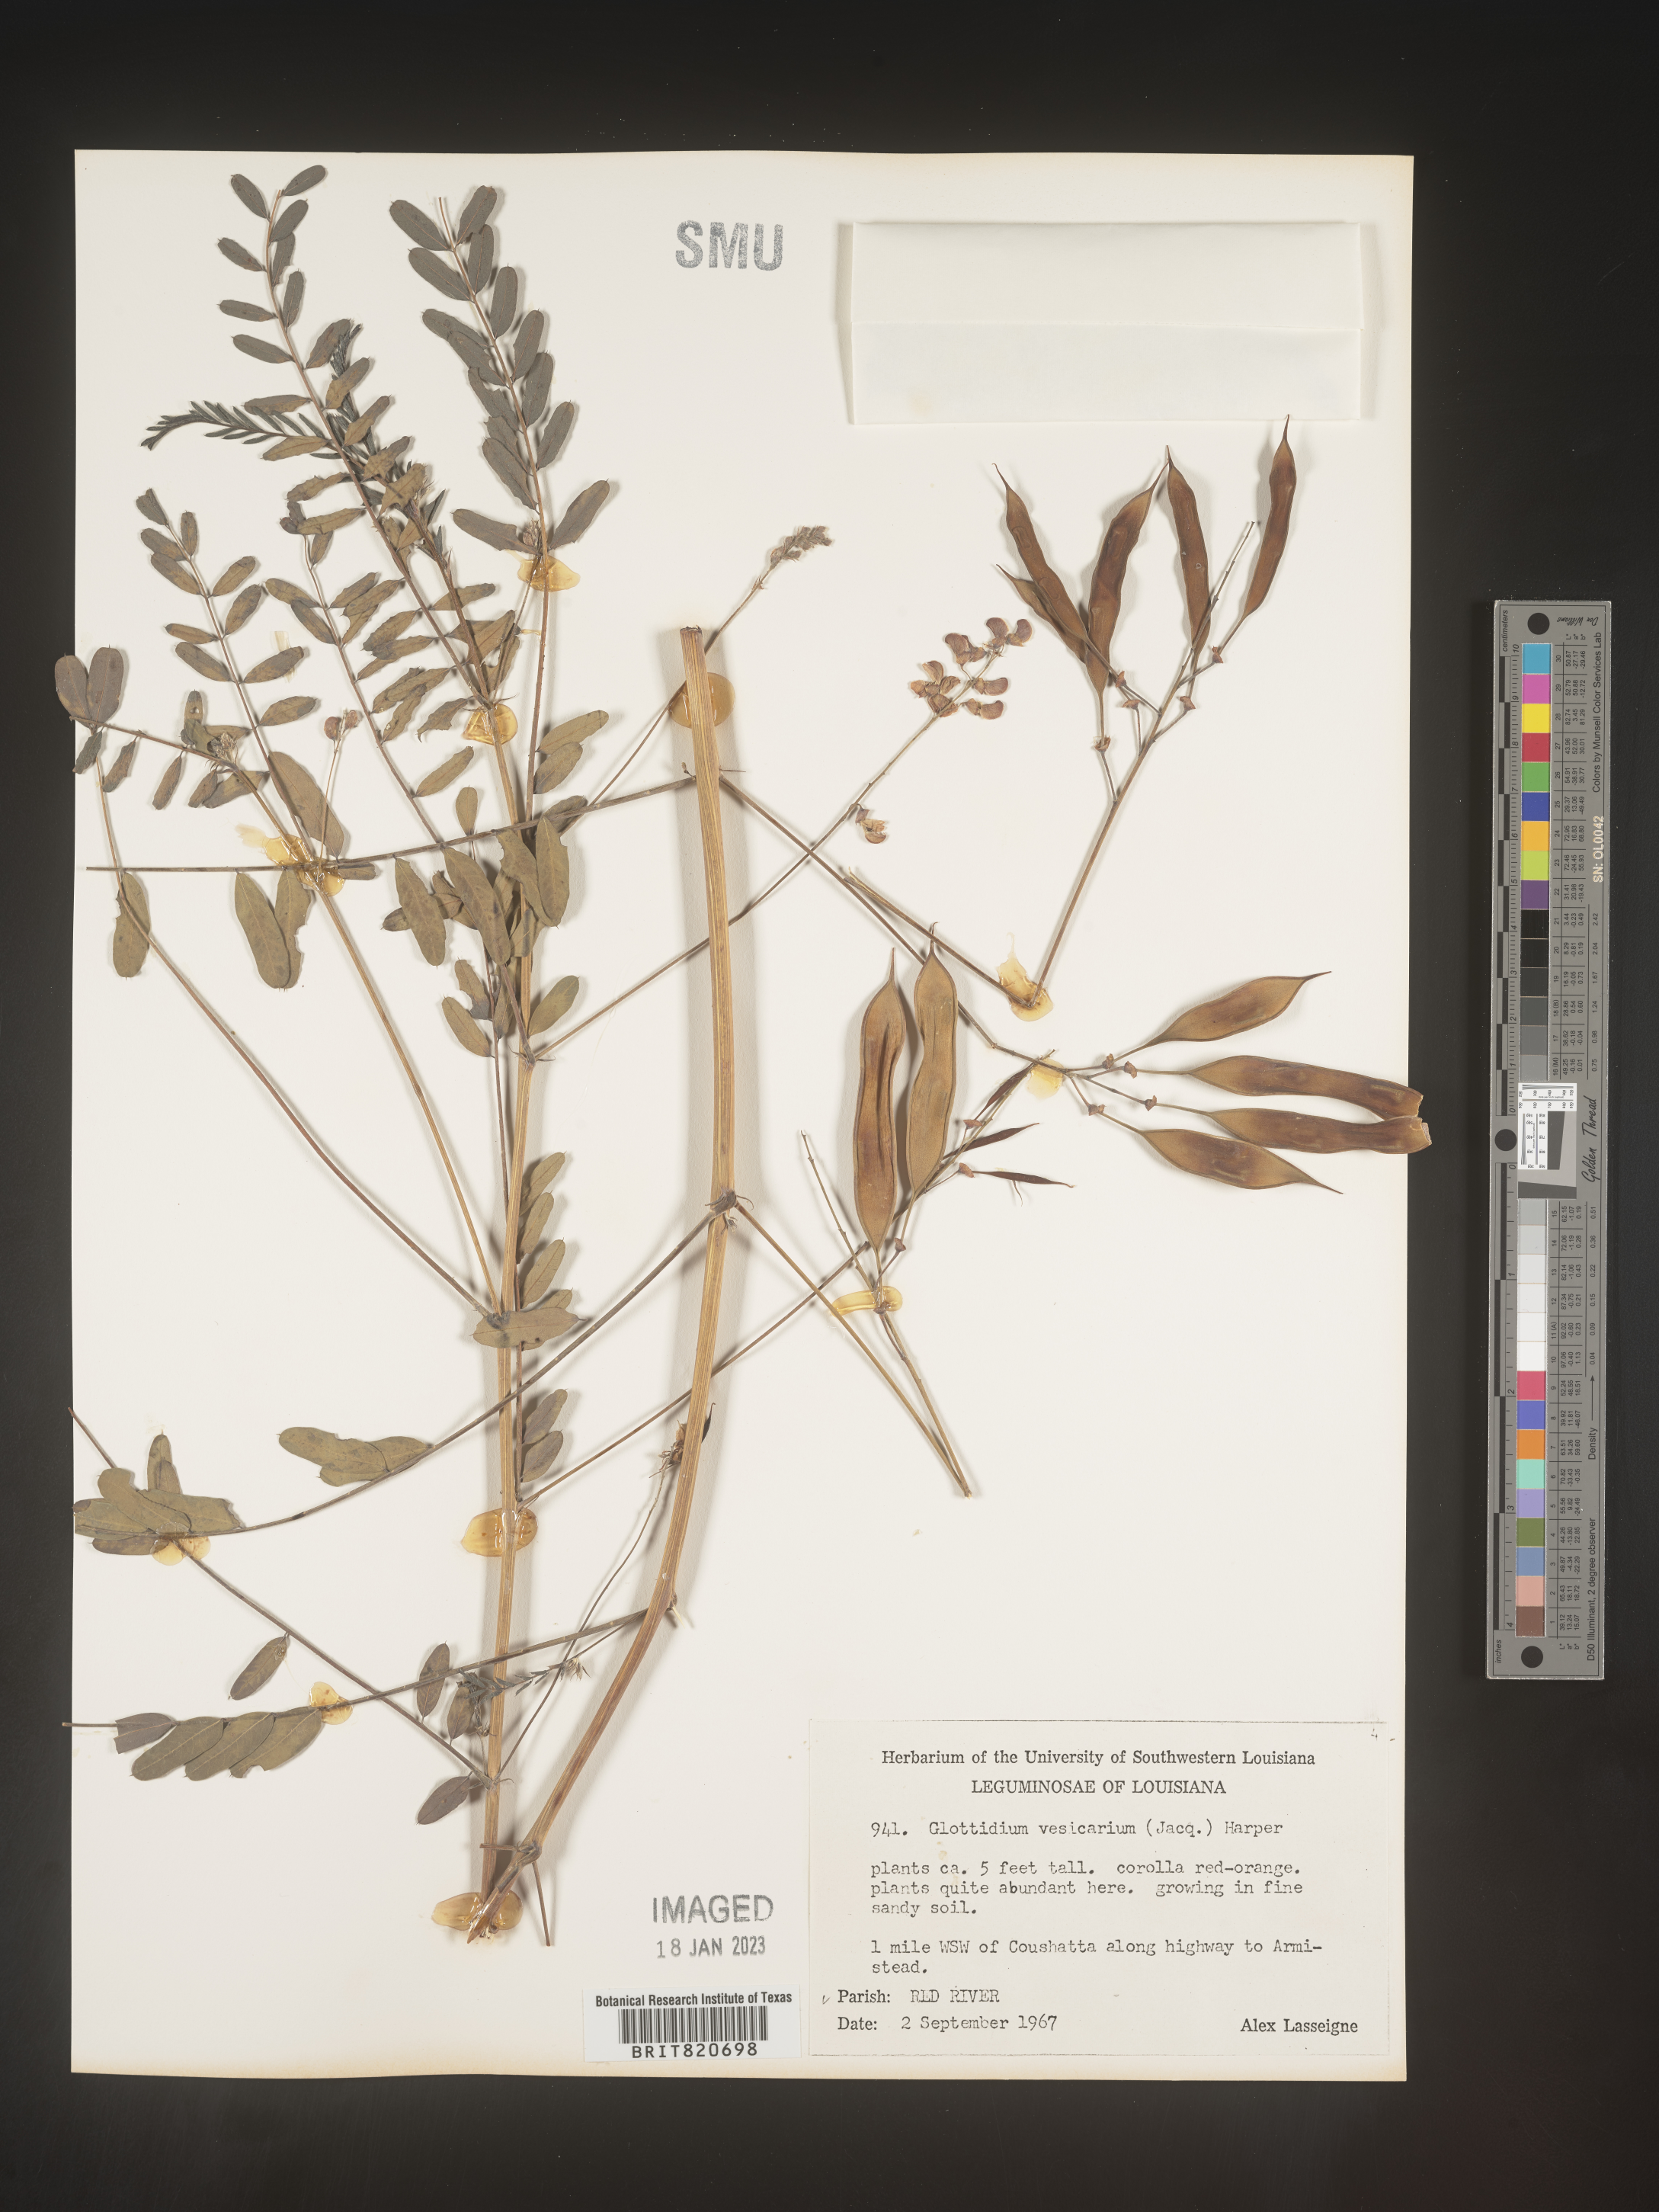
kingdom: Plantae
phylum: Tracheophyta
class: Magnoliopsida
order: Fabales
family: Fabaceae
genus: Sesbania
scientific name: Sesbania vesicaria
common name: Bagpod
